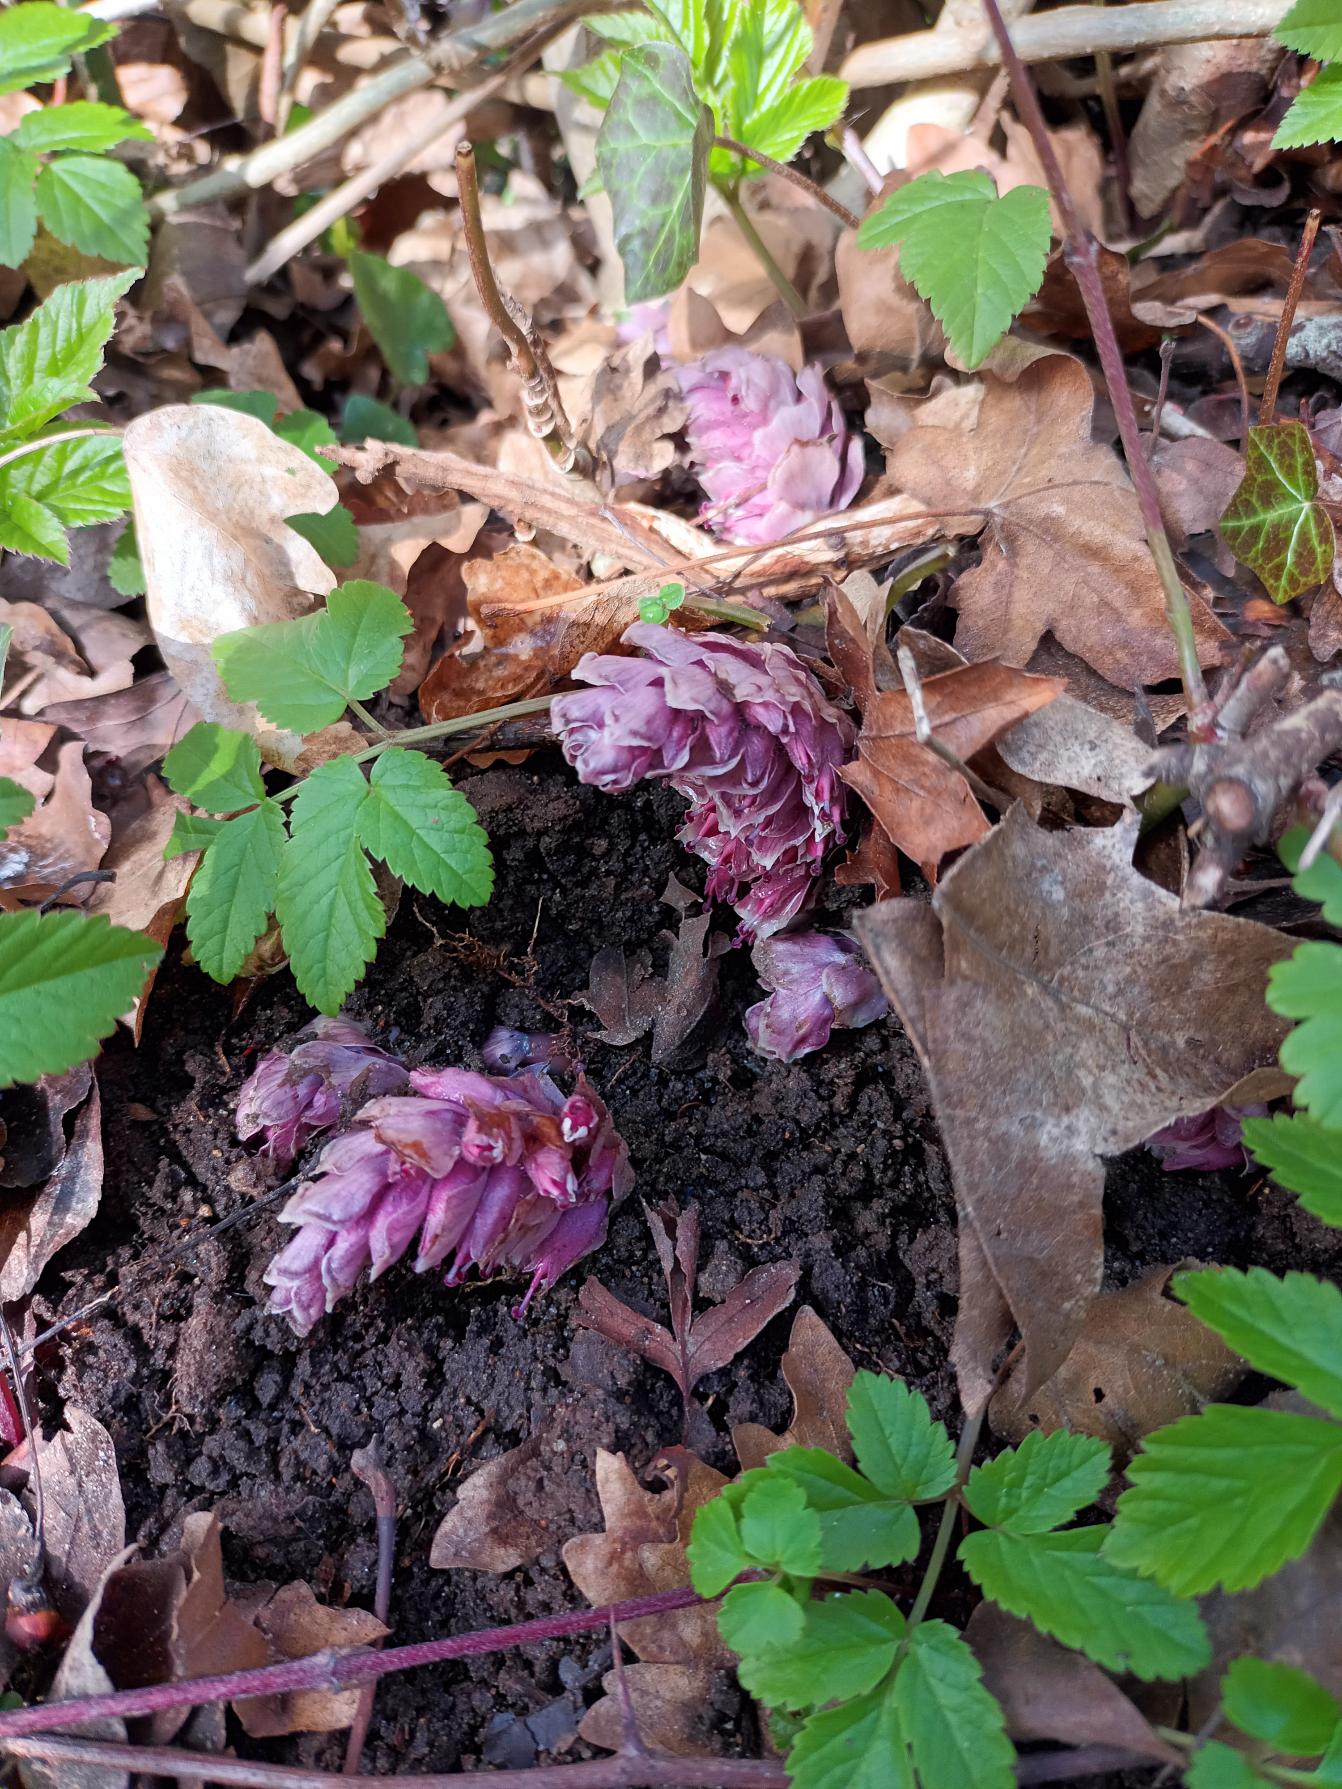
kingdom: Plantae
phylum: Tracheophyta
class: Magnoliopsida
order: Lamiales
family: Orobanchaceae
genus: Lathraea
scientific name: Lathraea squamaria
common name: Skælrod
